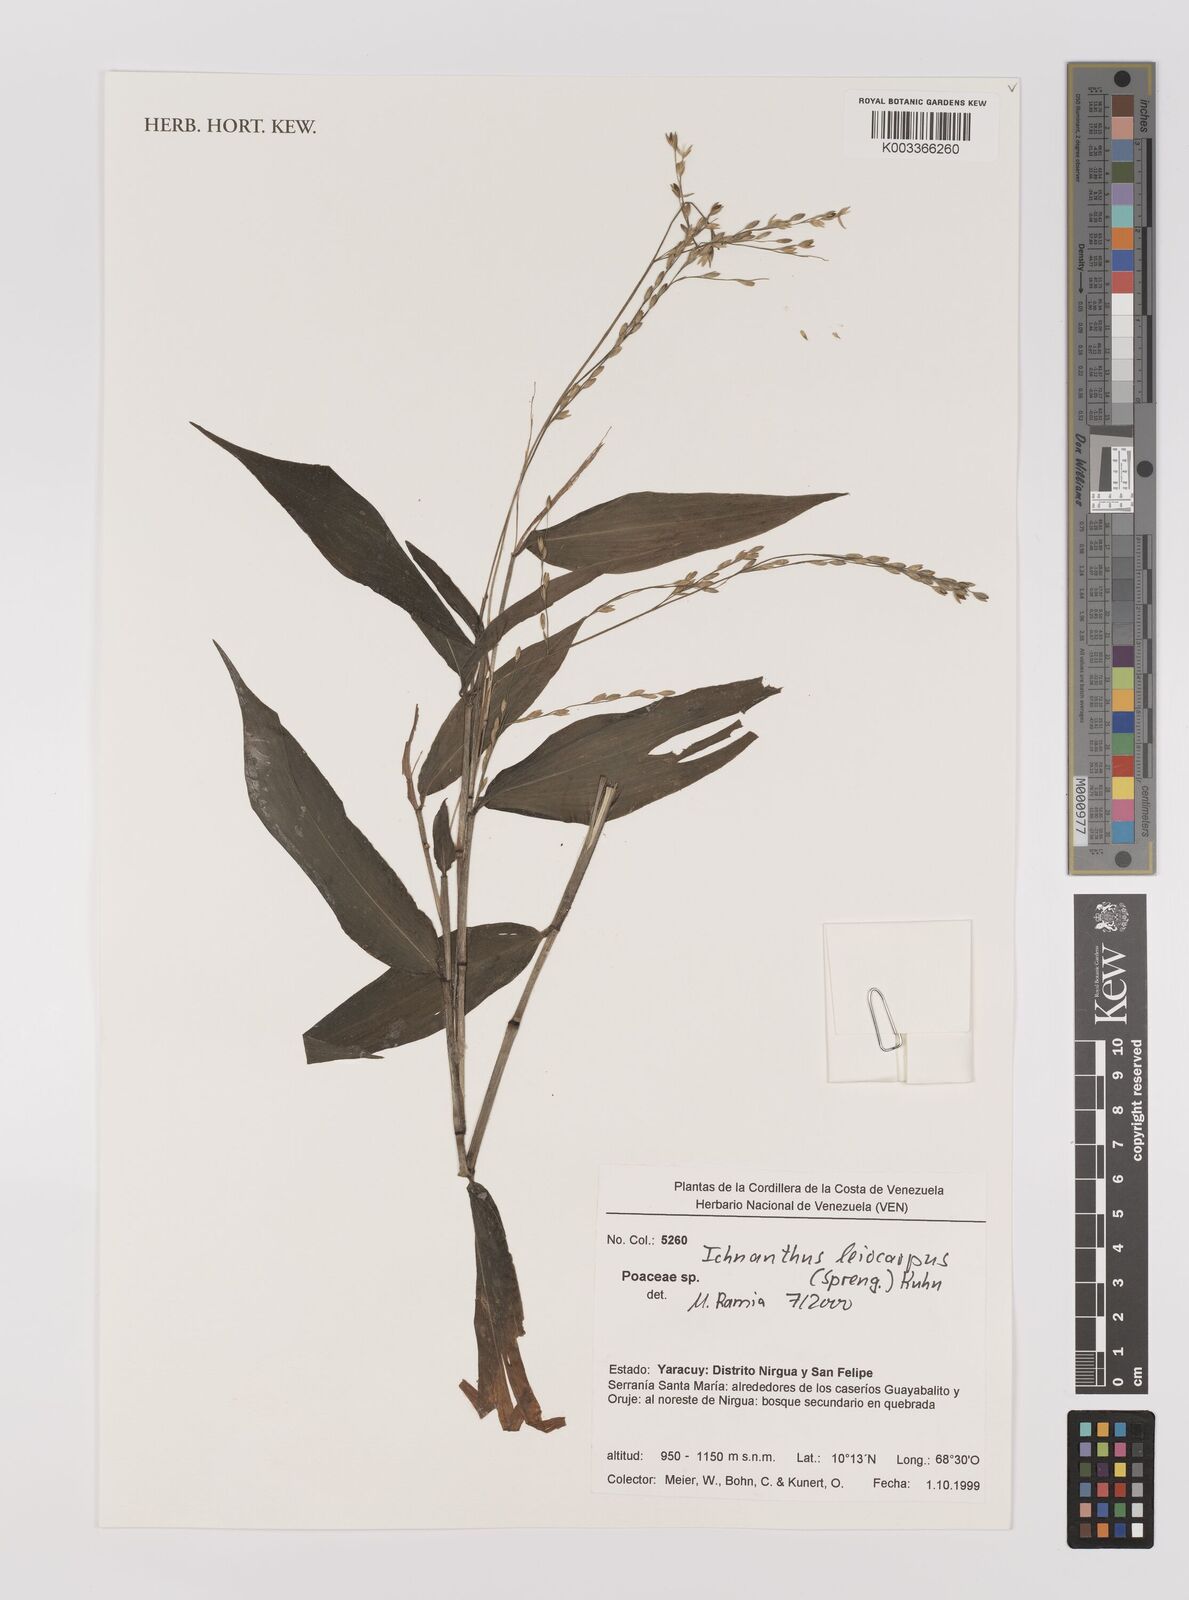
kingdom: Plantae
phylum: Tracheophyta
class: Liliopsida
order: Poales
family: Poaceae
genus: Ichnanthus
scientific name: Ichnanthus leiocarpus
